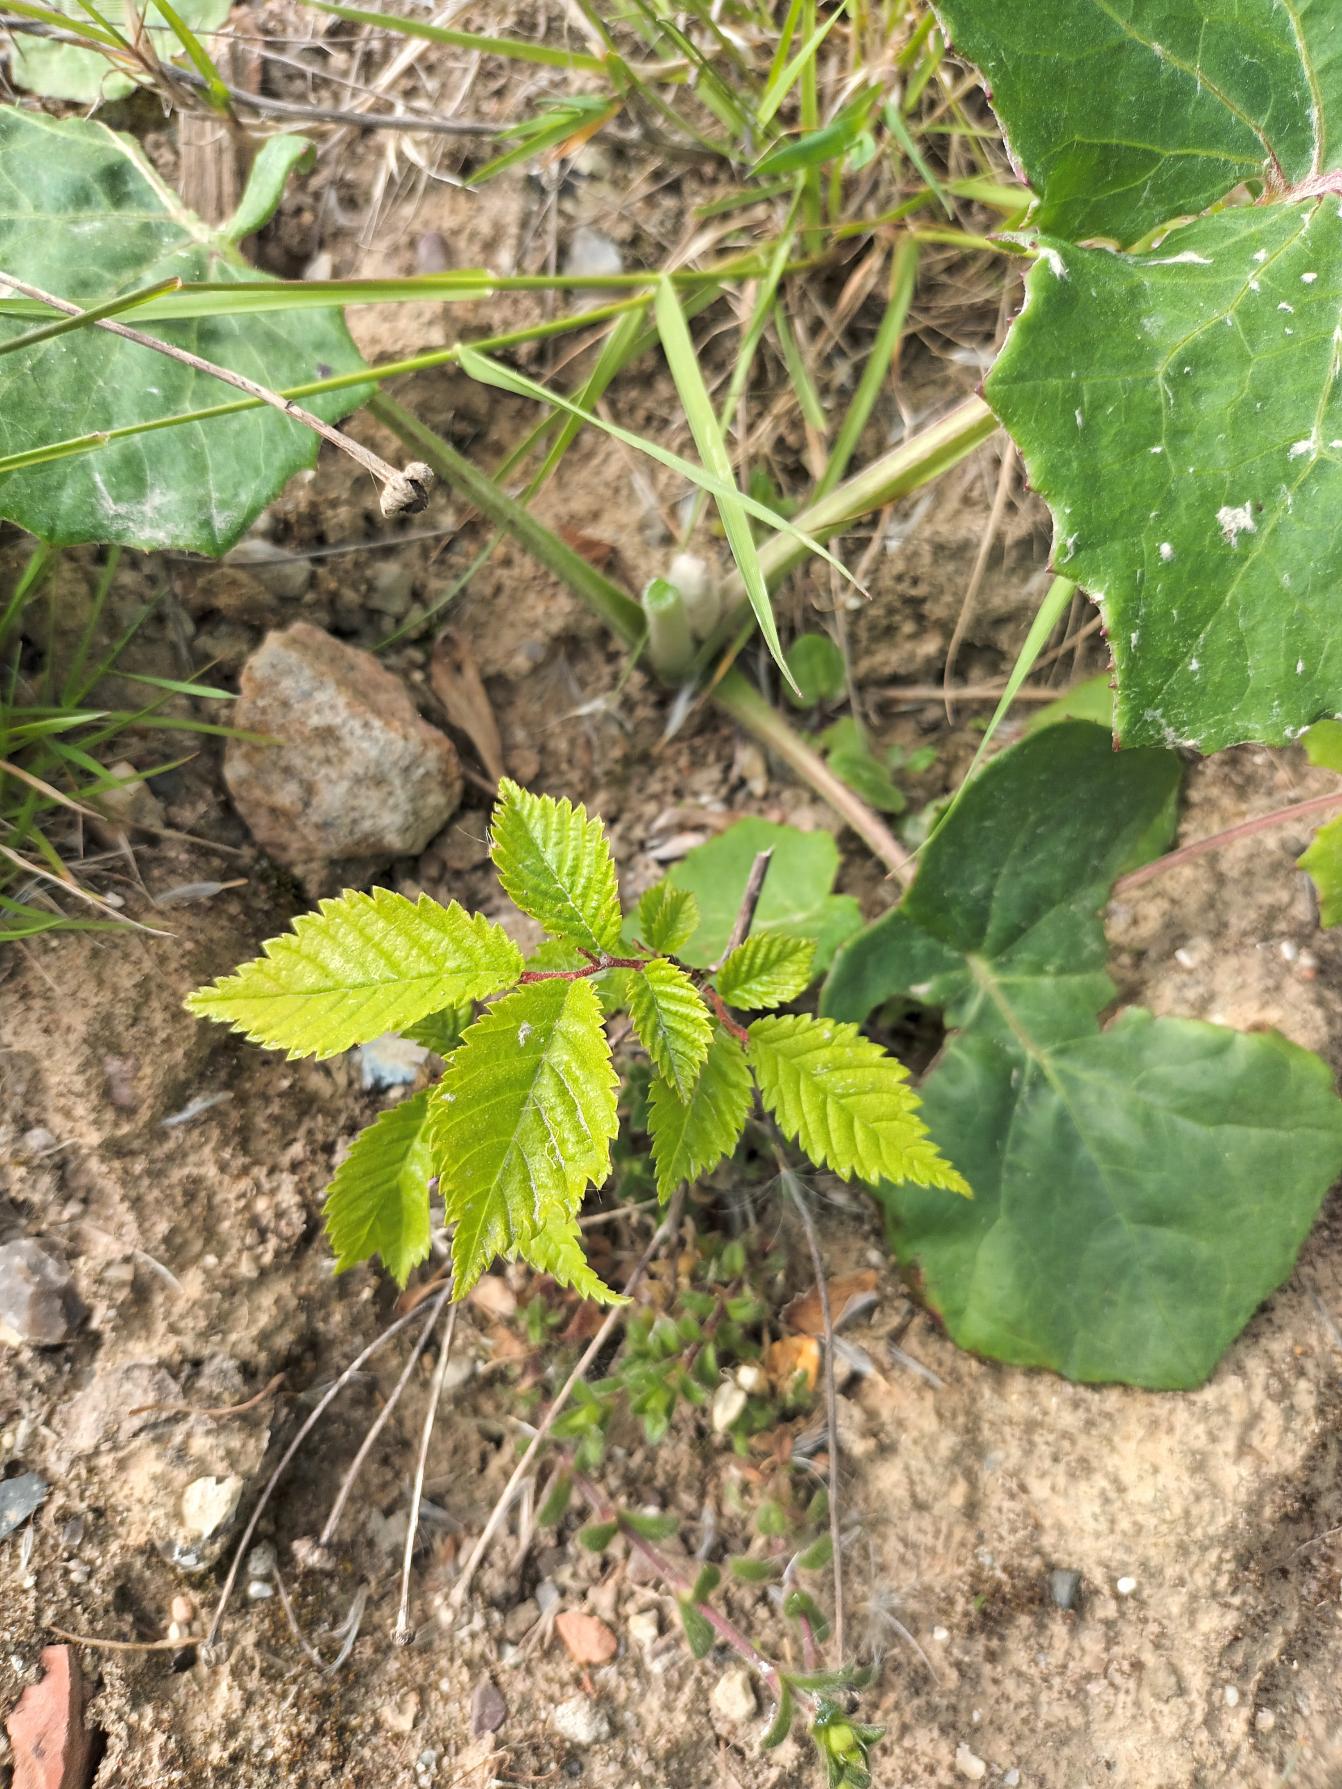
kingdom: Plantae
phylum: Tracheophyta
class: Magnoliopsida
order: Rosales
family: Ulmaceae
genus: Ulmus
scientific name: Ulmus glabra
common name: Skov-elm/storbladet elm
